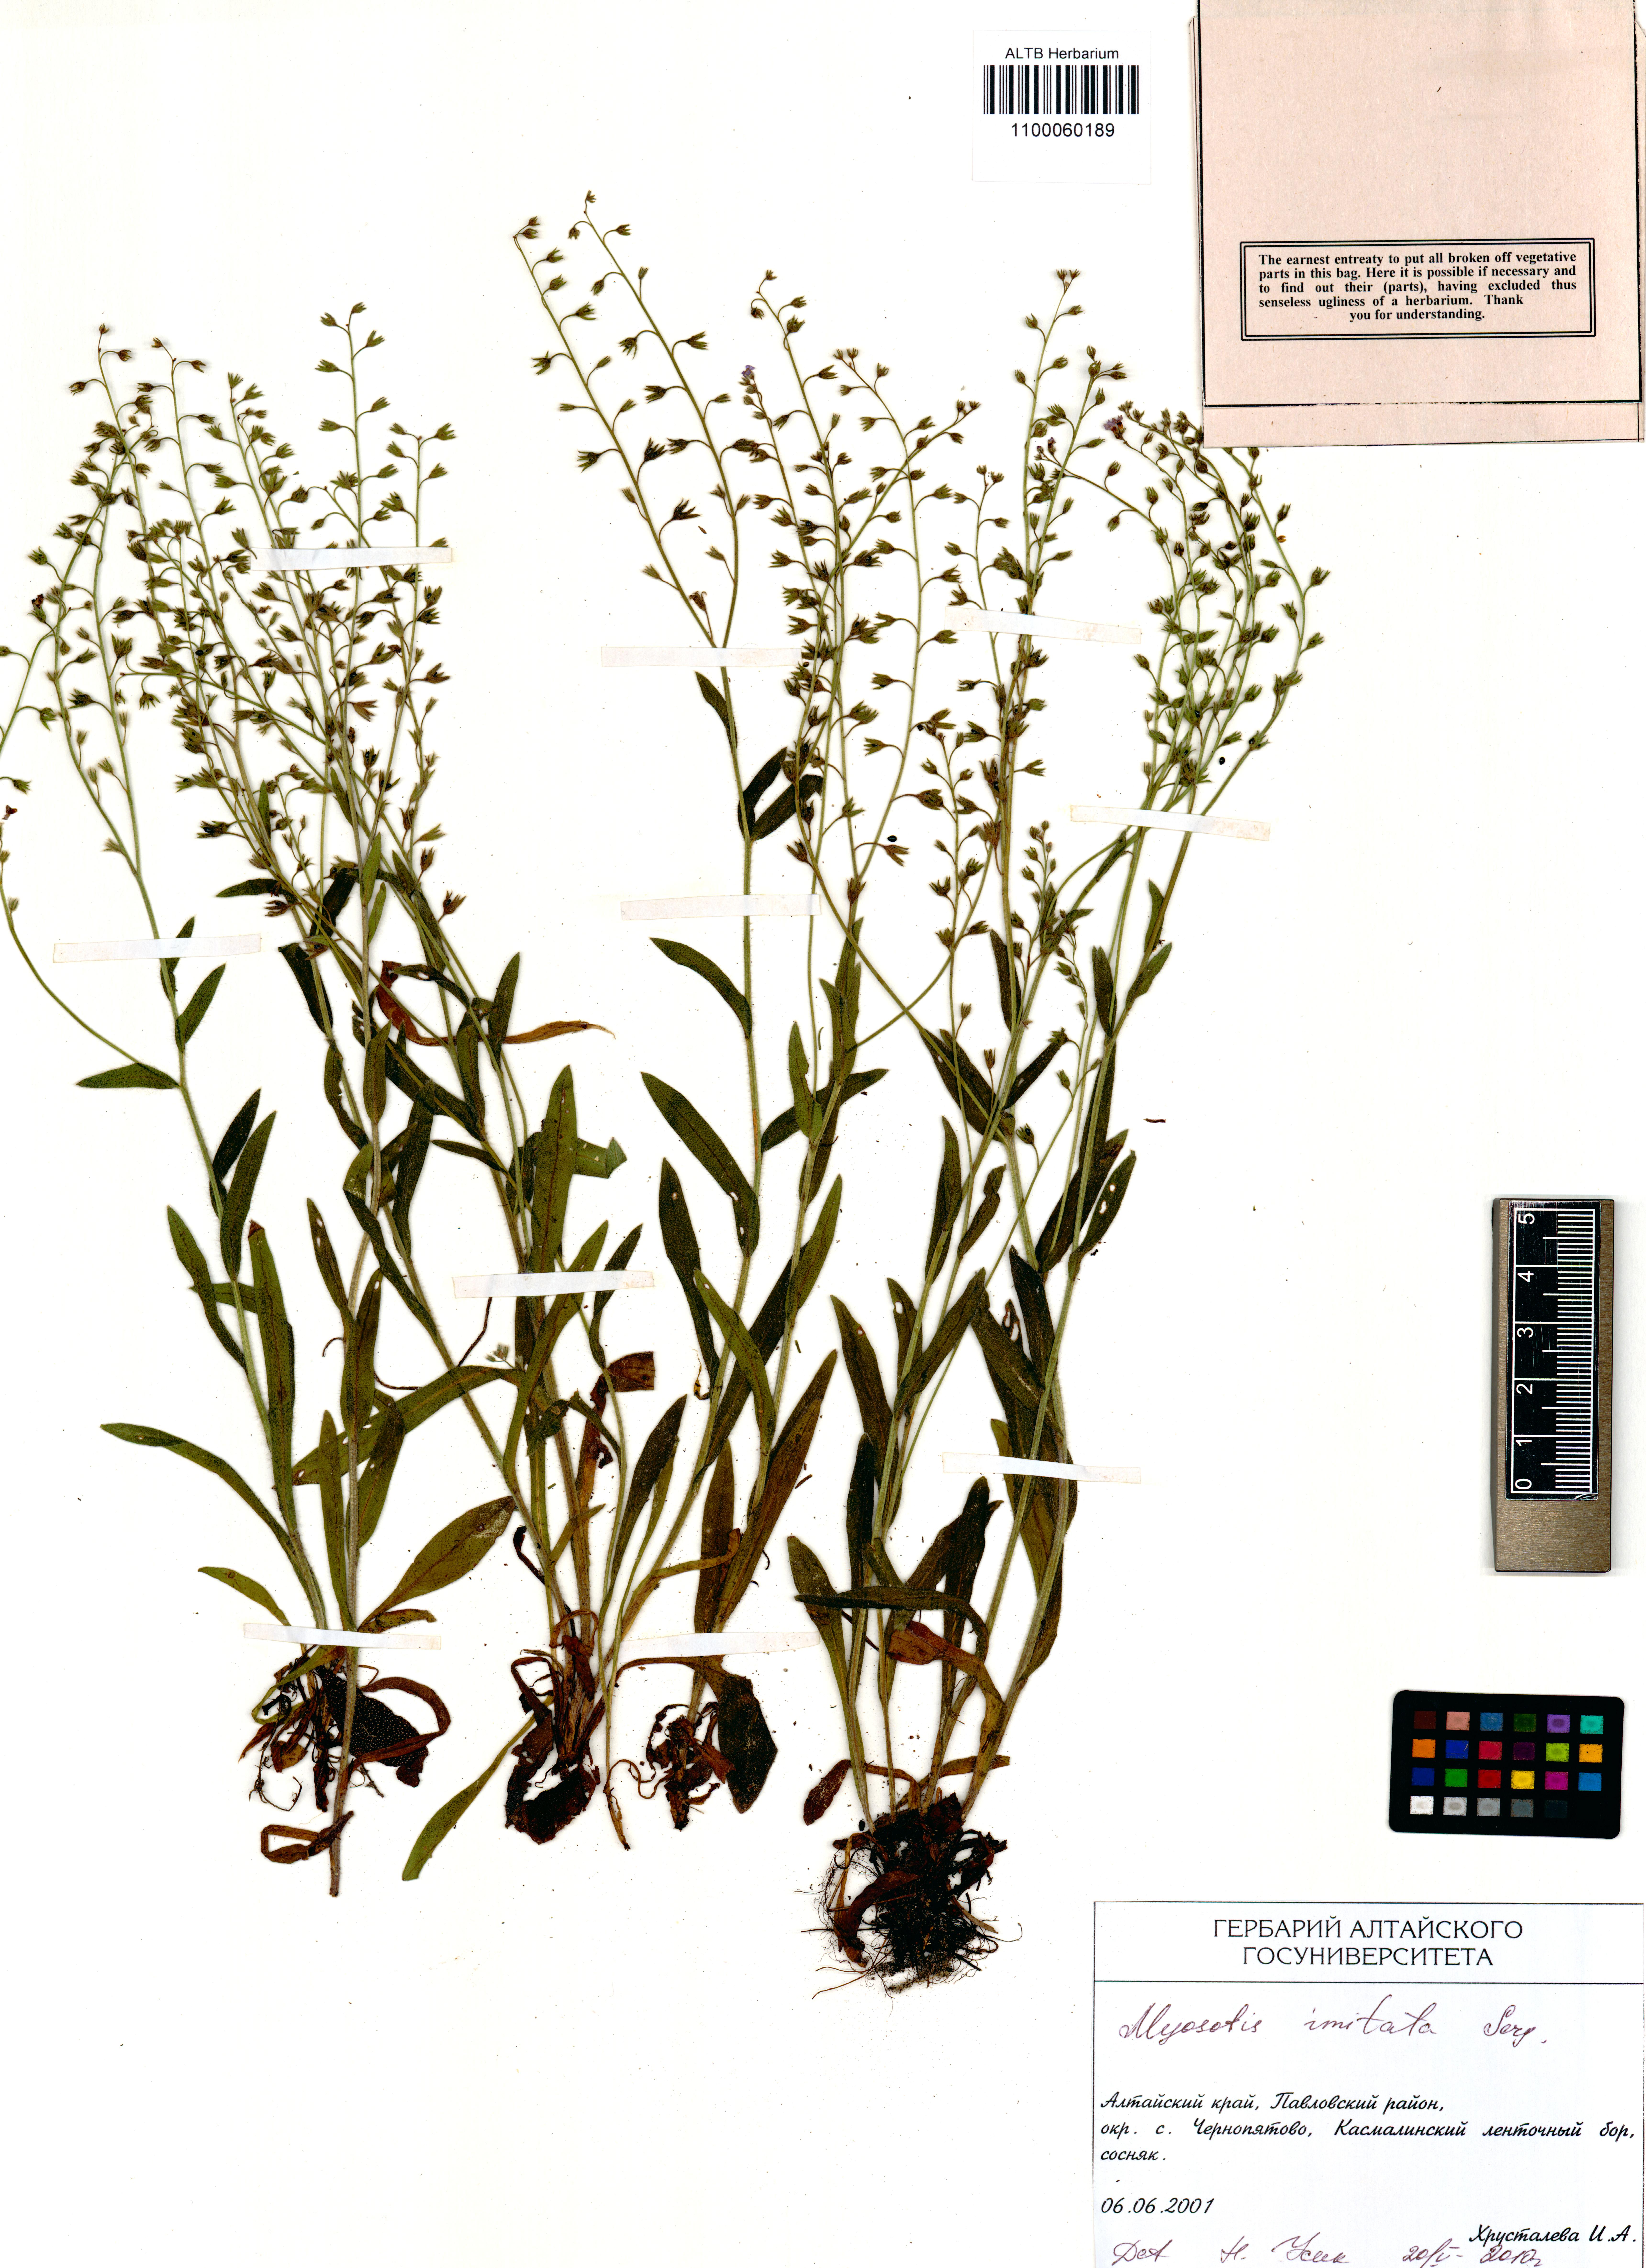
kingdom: Plantae
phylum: Tracheophyta
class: Magnoliopsida
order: Boraginales
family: Boraginaceae
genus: Myosotis
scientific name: Myosotis imitata
